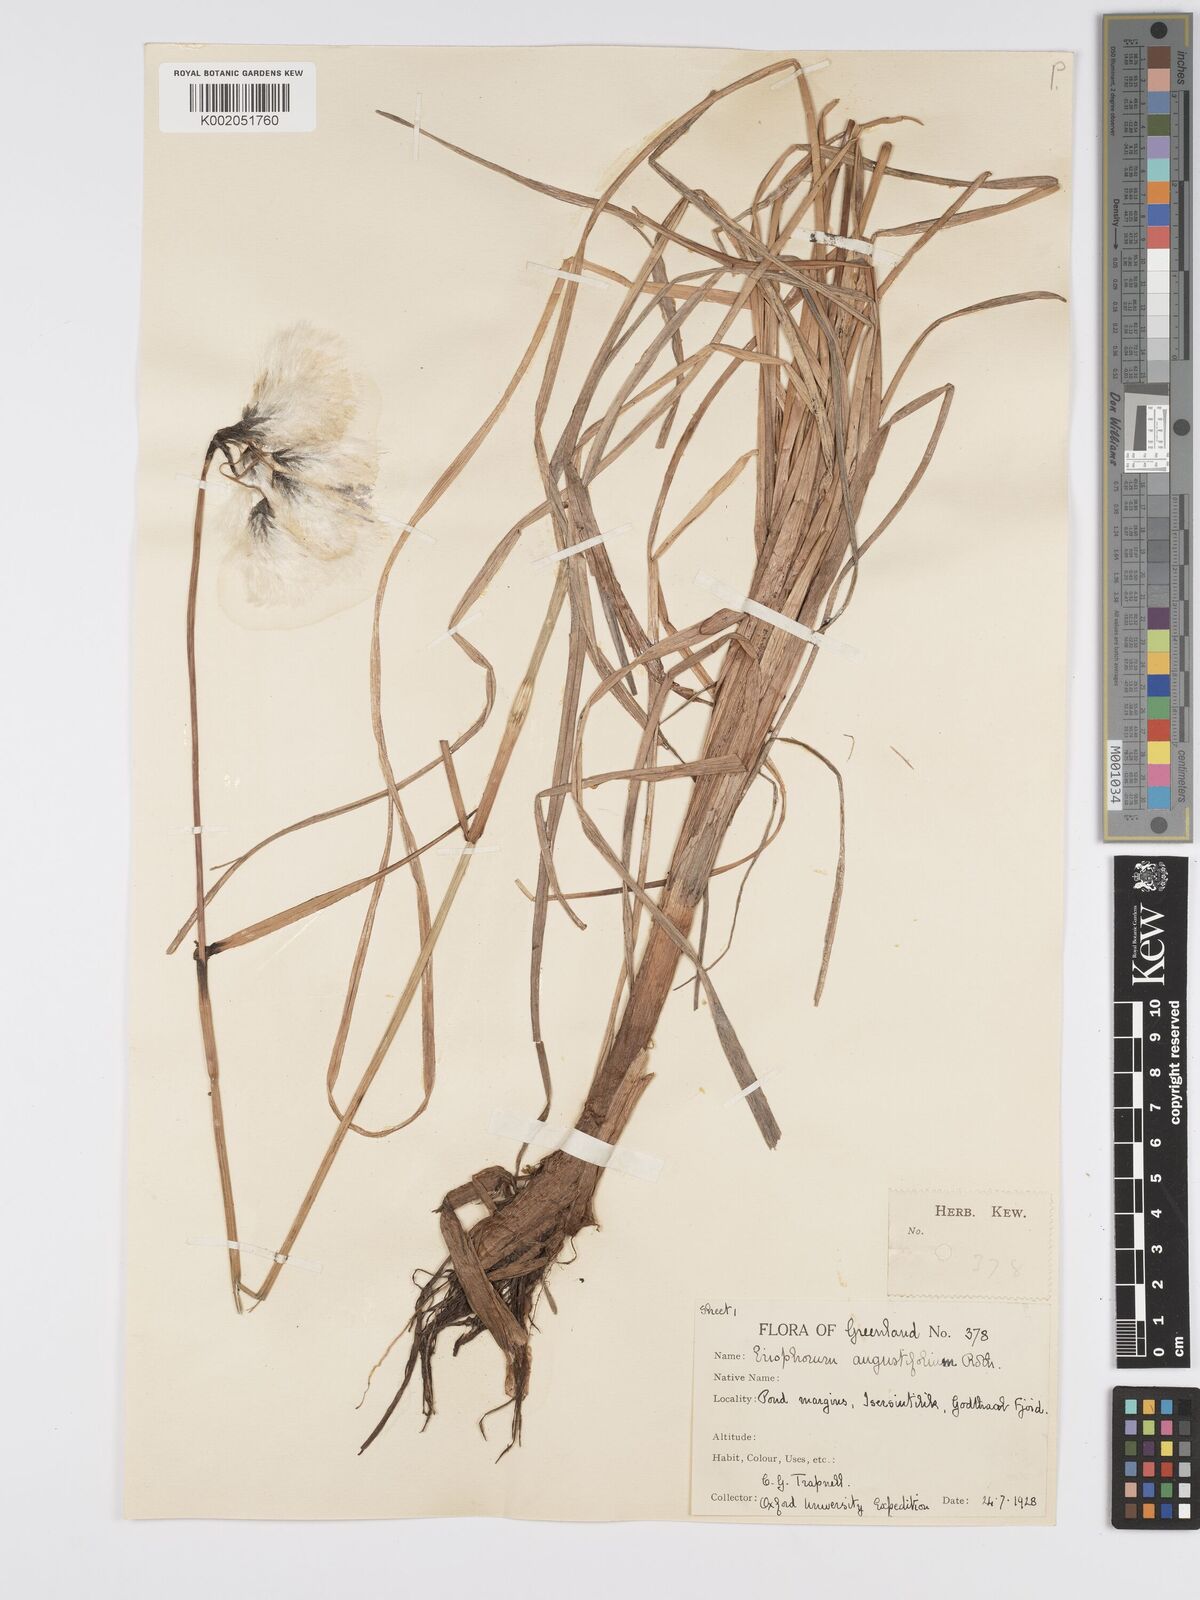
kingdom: Plantae
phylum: Tracheophyta
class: Liliopsida
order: Poales
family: Cyperaceae
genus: Eriophorum
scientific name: Eriophorum angustifolium
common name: Common cottongrass
